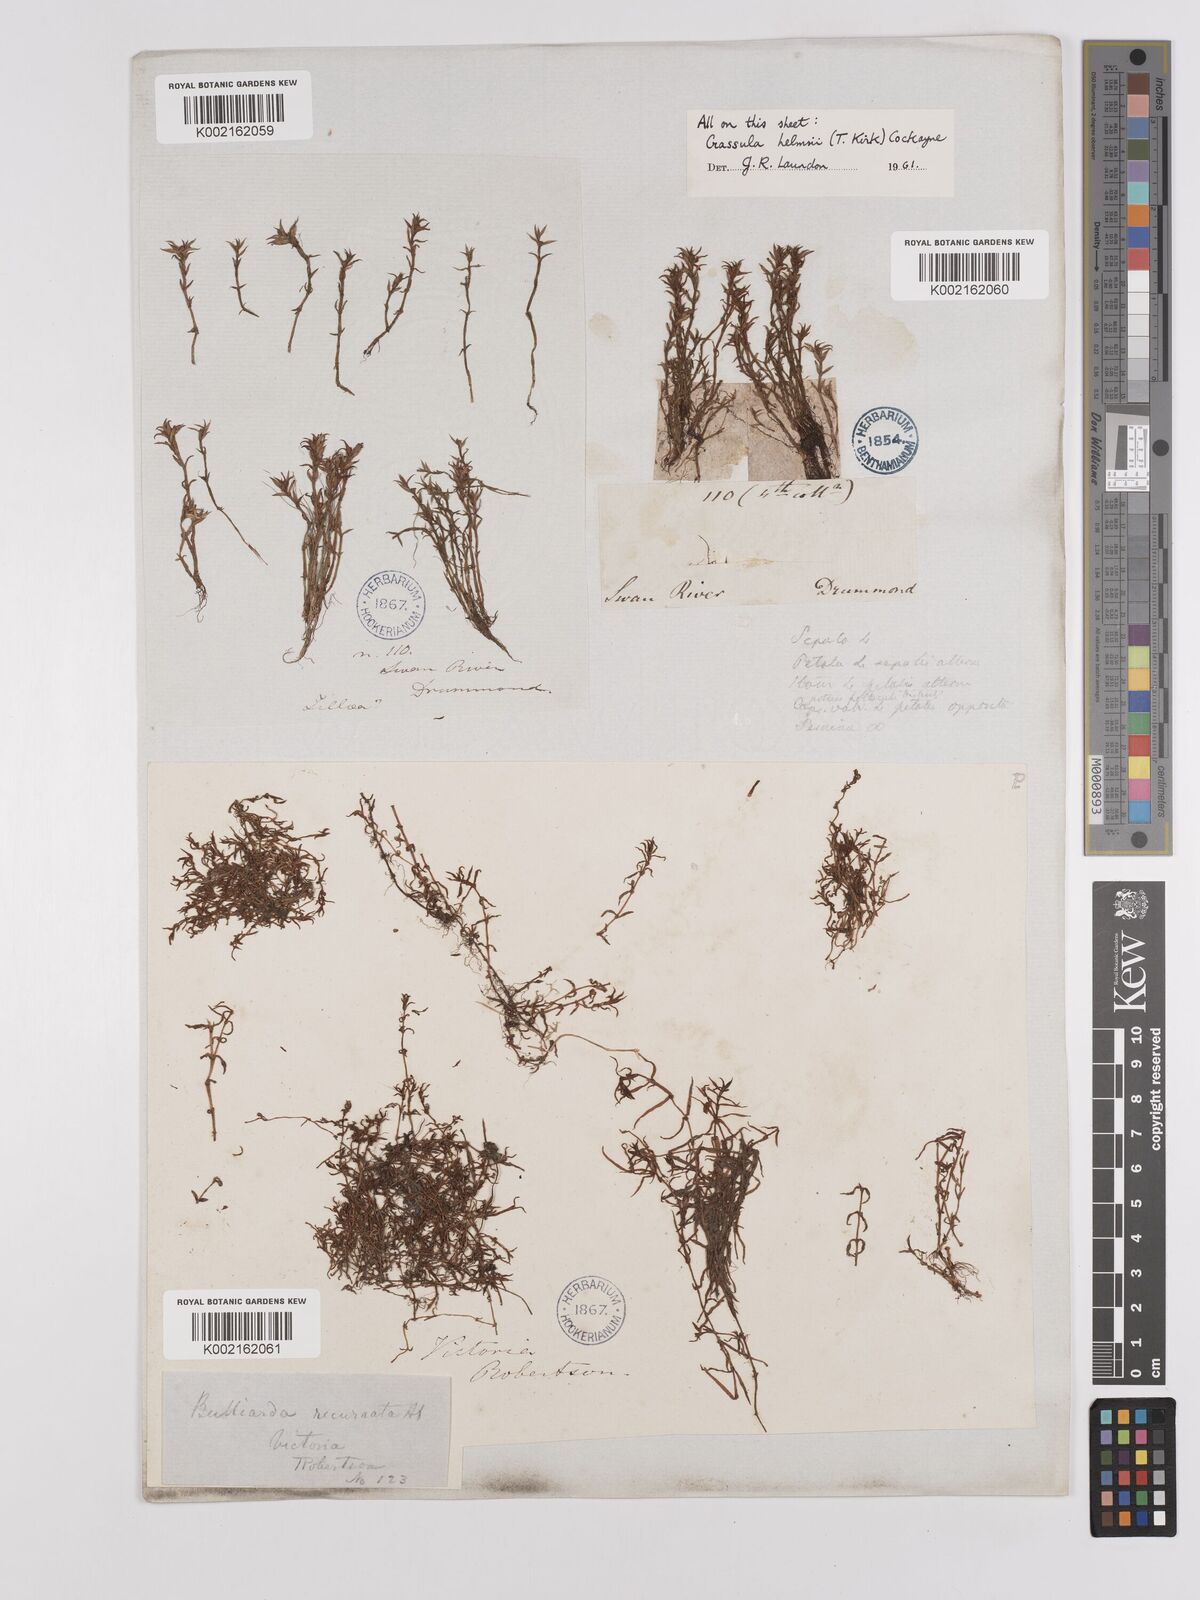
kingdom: Plantae
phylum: Tracheophyta
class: Magnoliopsida
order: Saxifragales
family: Crassulaceae
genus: Crassula
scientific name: Crassula helmsii
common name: New zealand pigmyweed
